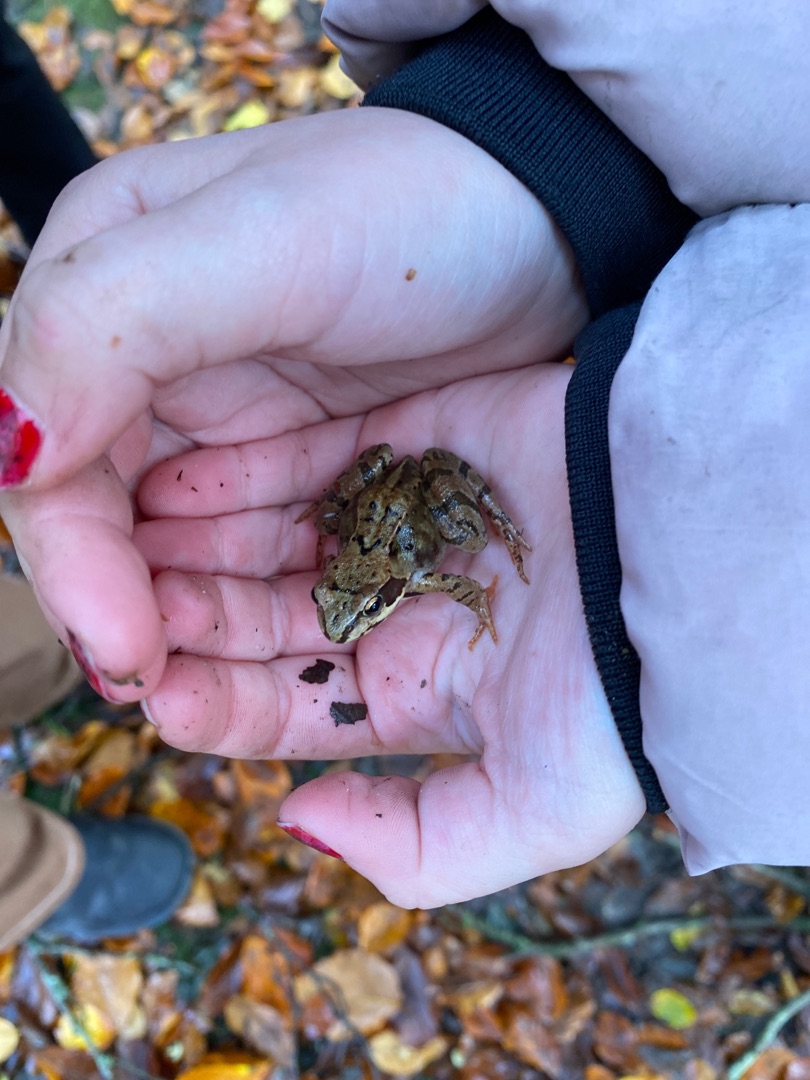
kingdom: Animalia
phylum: Chordata
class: Amphibia
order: Anura
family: Ranidae
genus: Rana
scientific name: Rana temporaria
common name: Butsnudet frø
